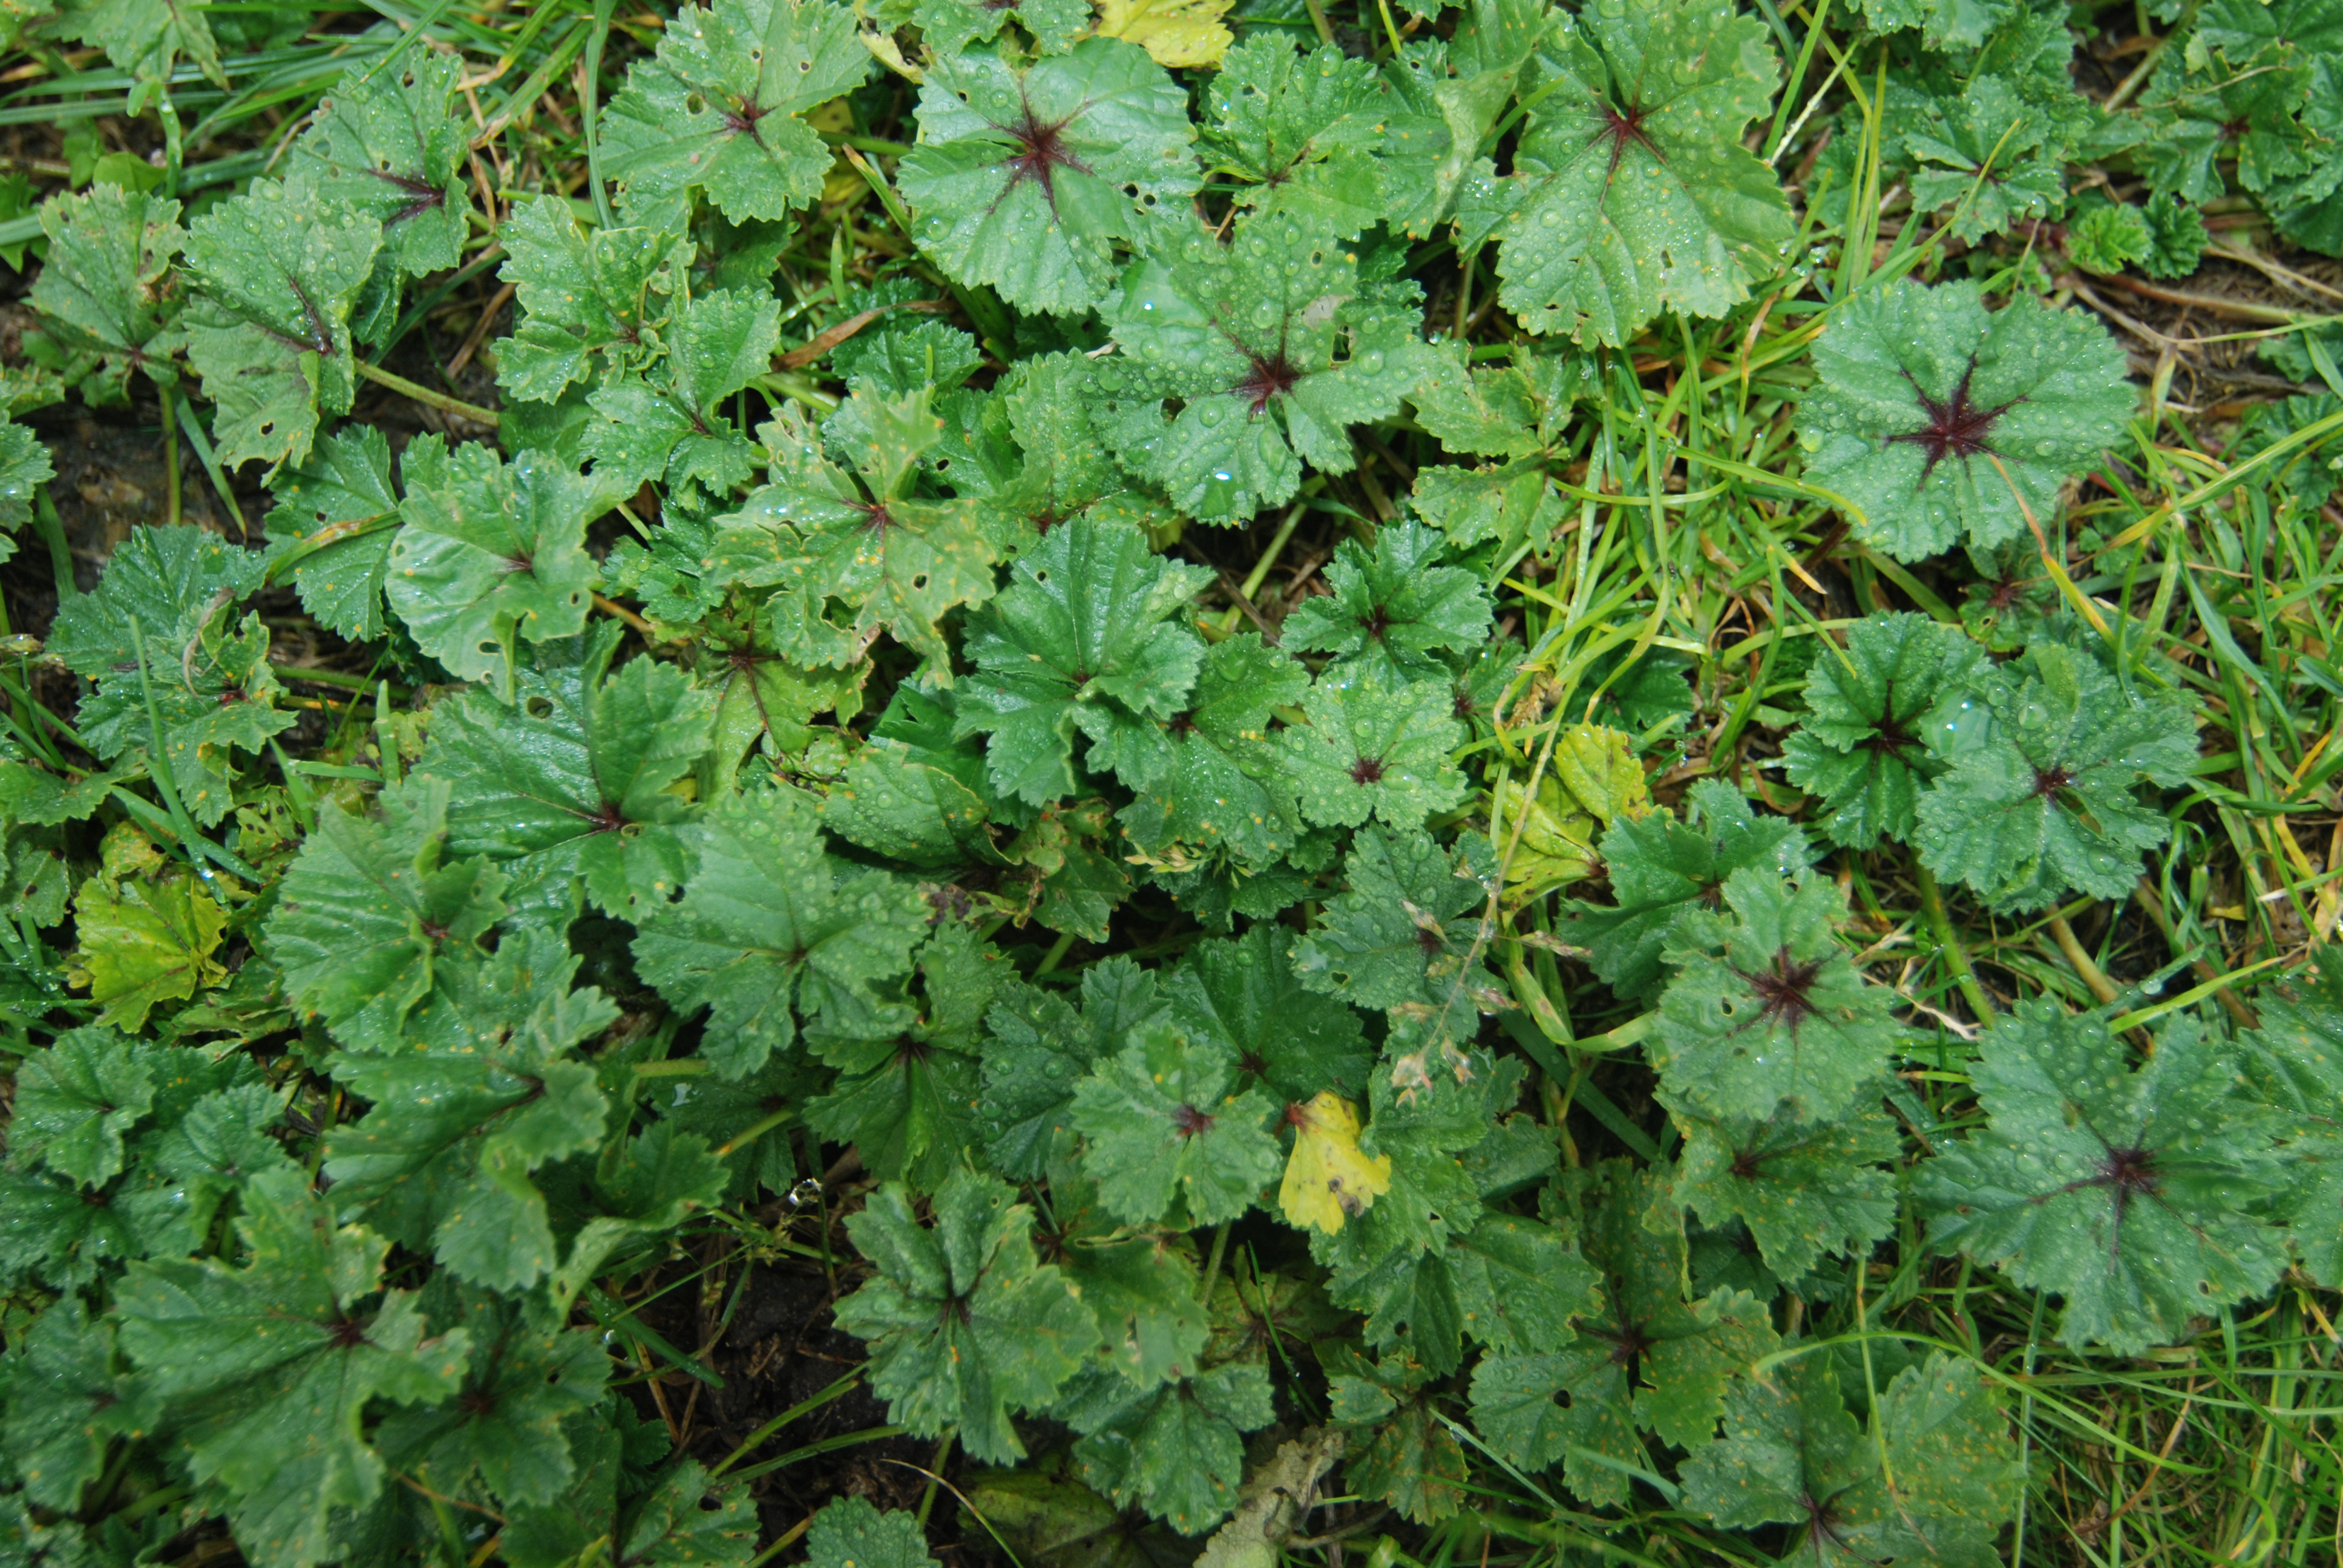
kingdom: Plantae
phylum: Tracheophyta
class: Magnoliopsida
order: Malvales
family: Malvaceae
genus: Malva
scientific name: Malva sylvestris
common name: Common mallow
